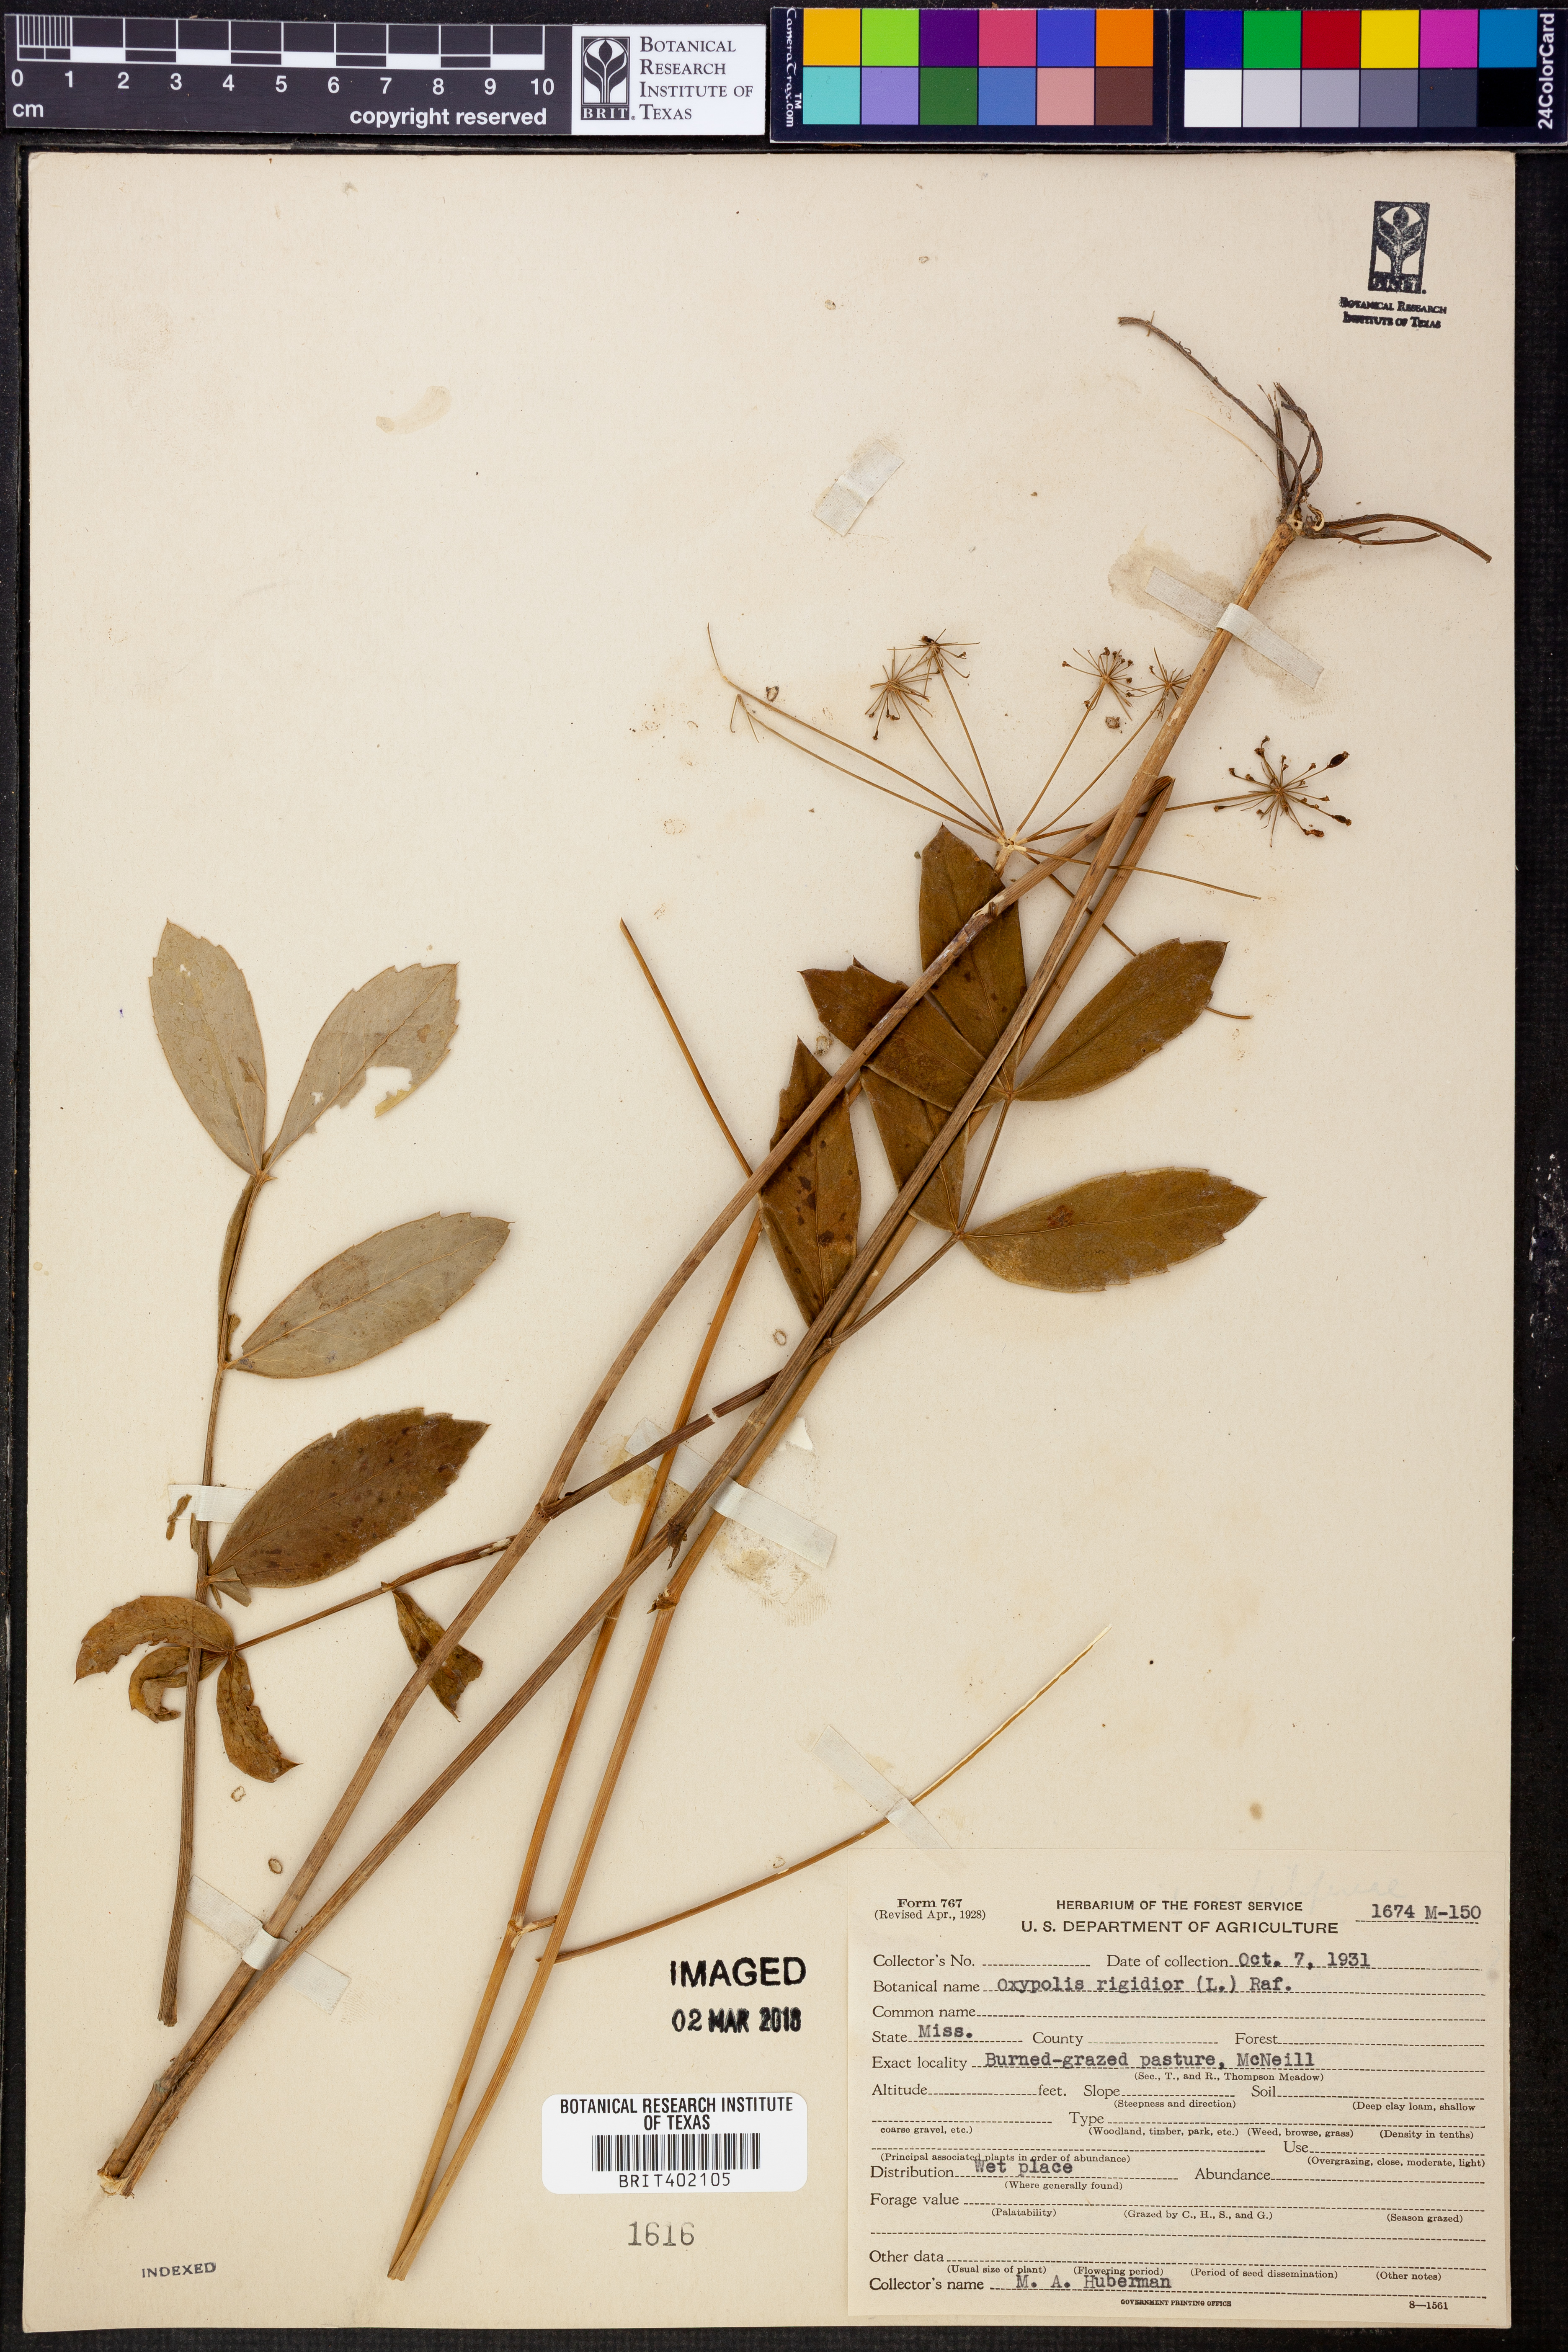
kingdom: Plantae
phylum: Tracheophyta
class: Magnoliopsida
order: Apiales
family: Apiaceae
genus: Oxypolis
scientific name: Oxypolis rigidior
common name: Cowbane
